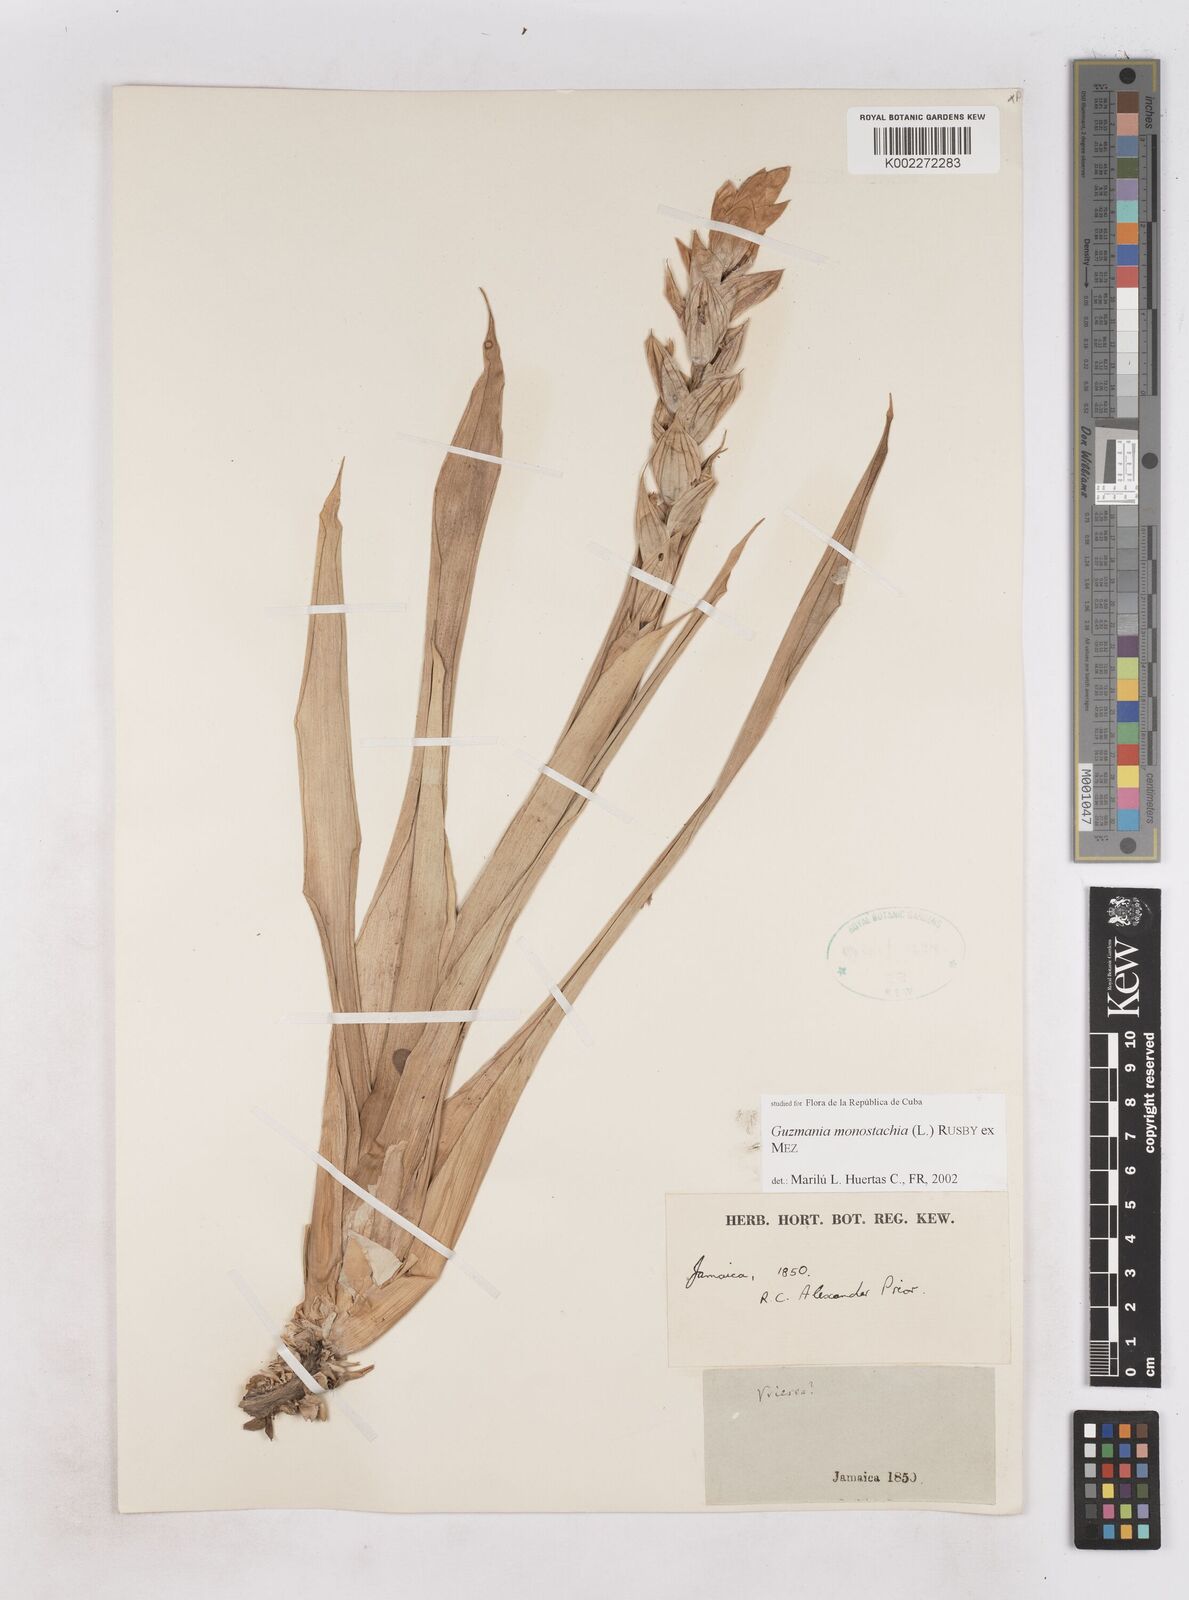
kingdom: Plantae
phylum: Tracheophyta
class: Liliopsida
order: Poales
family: Bromeliaceae
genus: Guzmania
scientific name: Guzmania monostachia
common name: West indian tufted airplant
